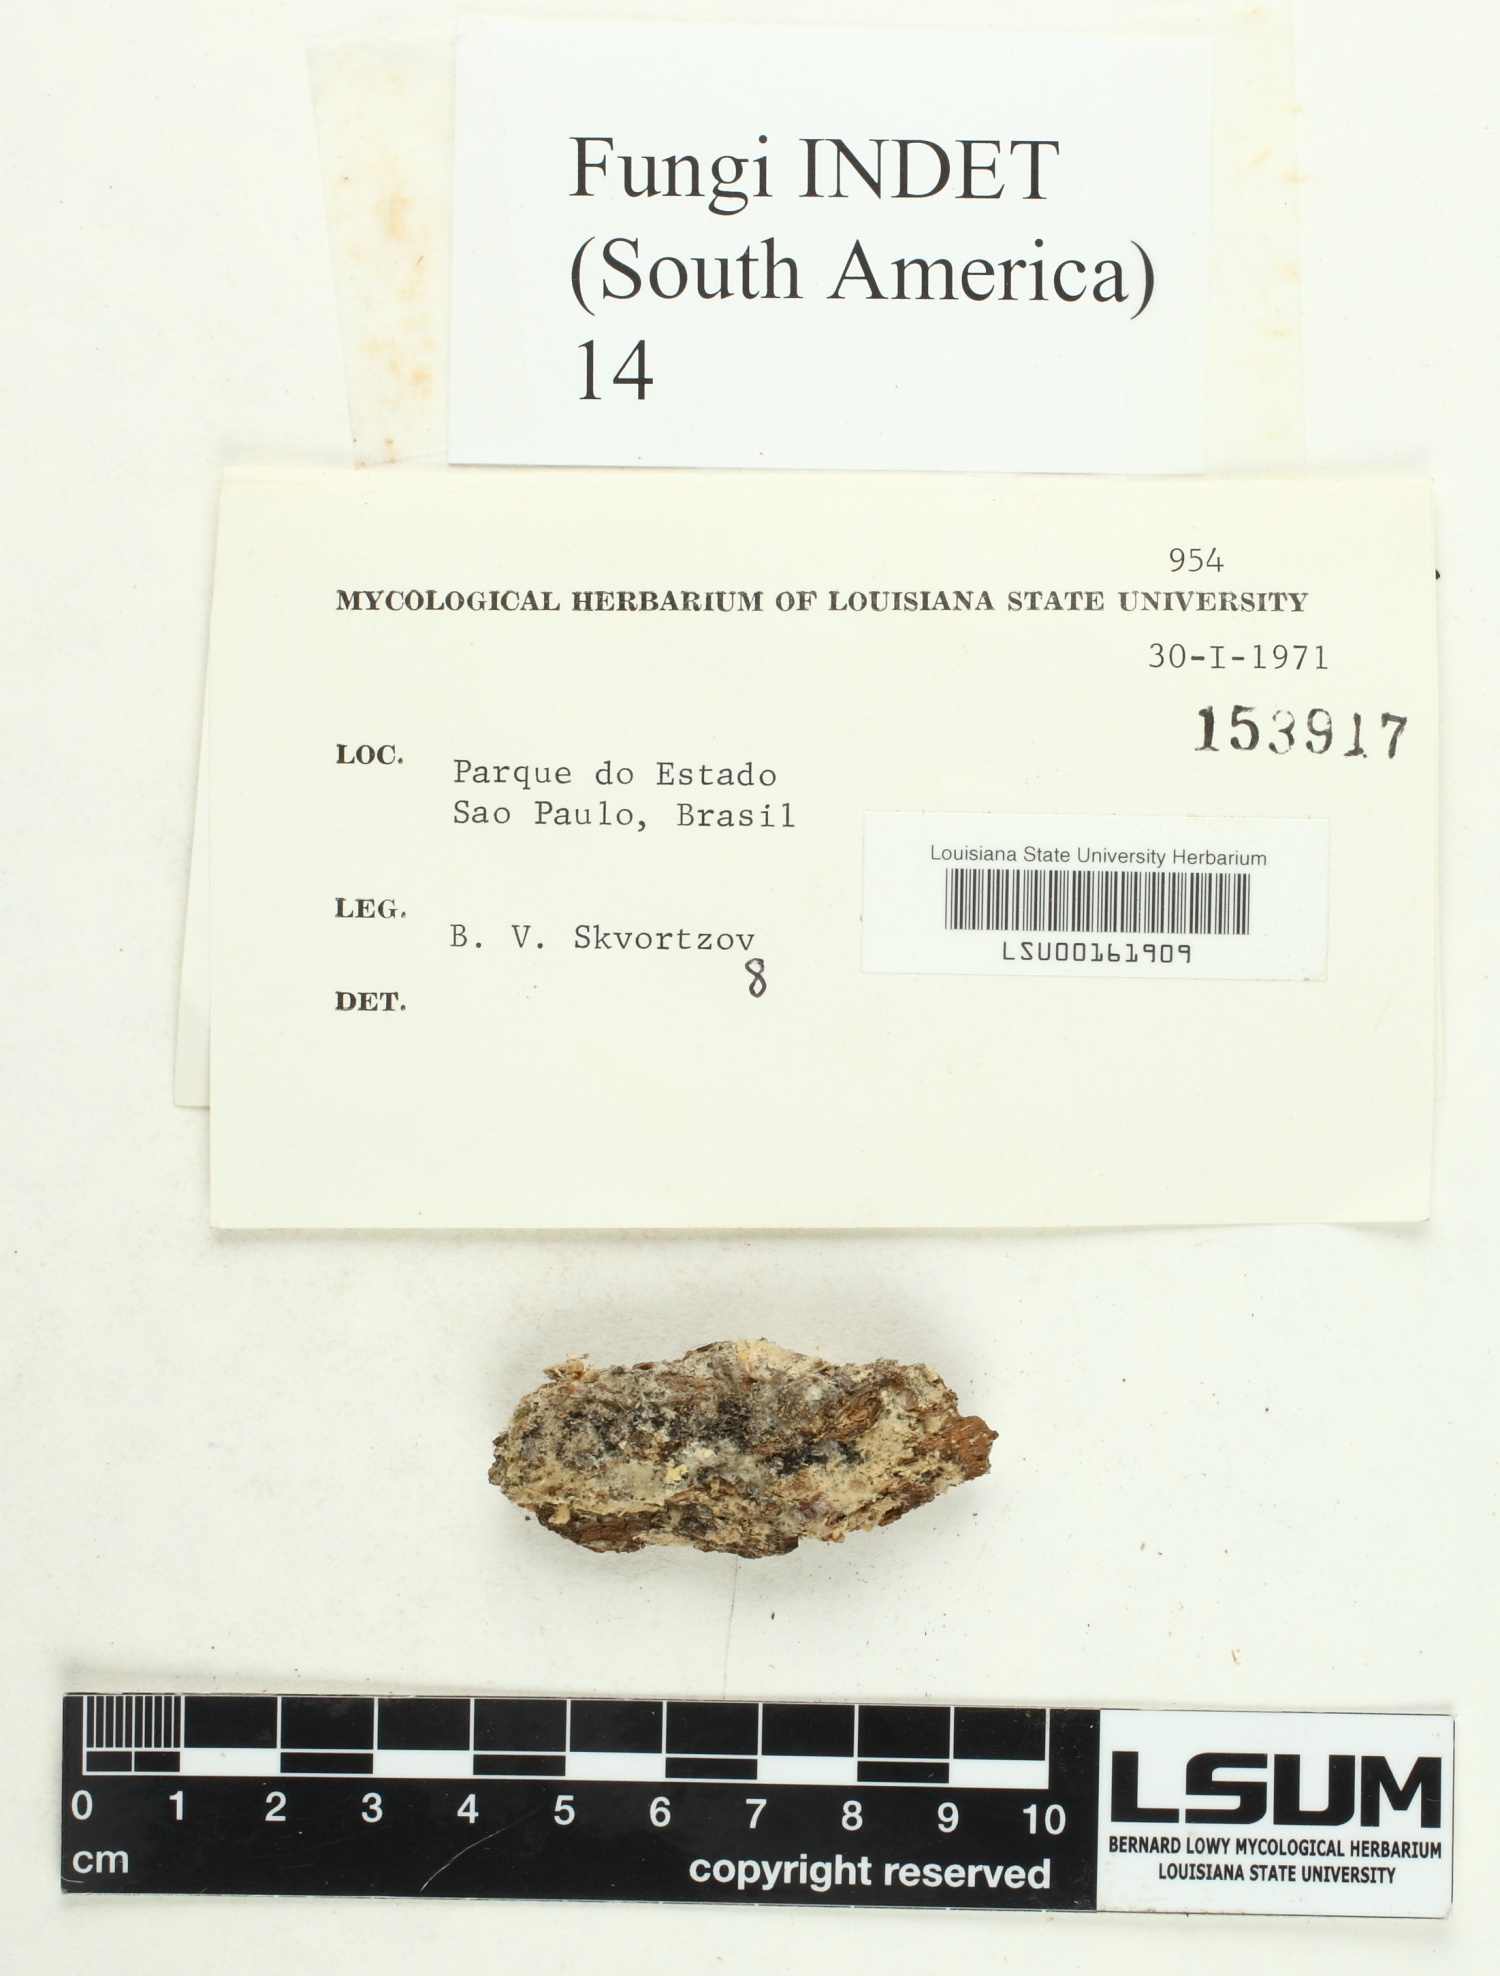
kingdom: Fungi
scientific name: Fungi
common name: Fungi
